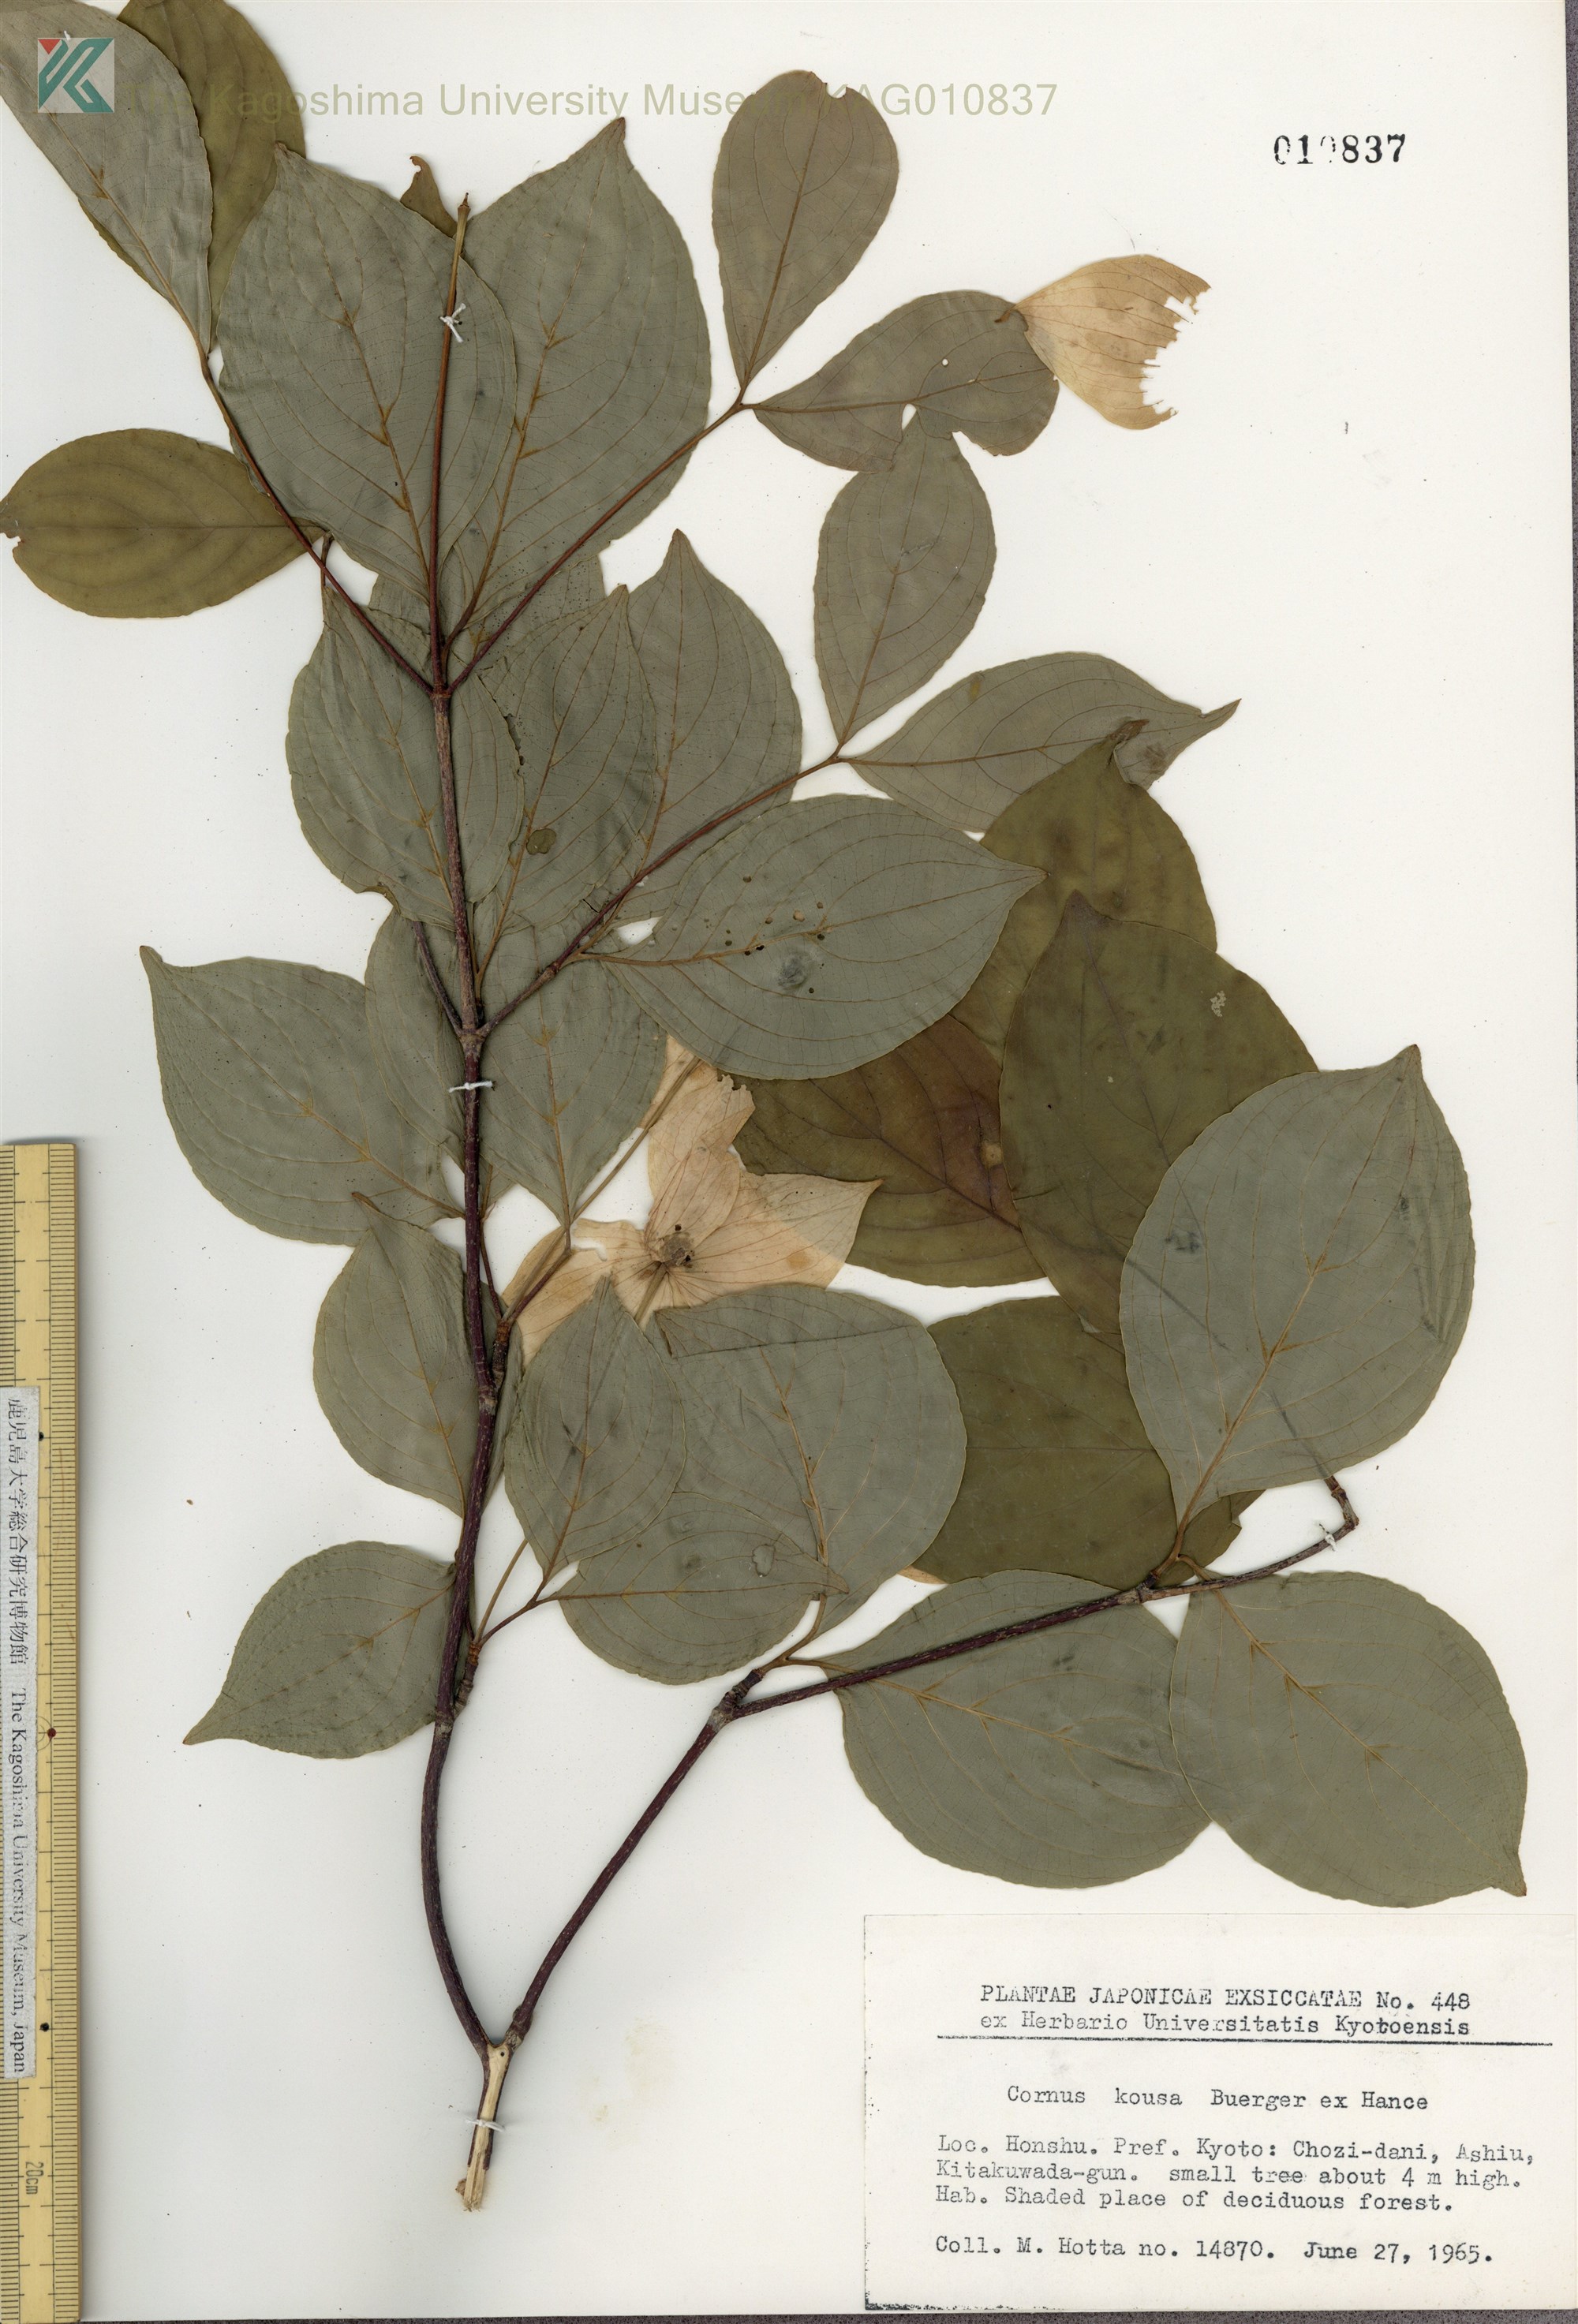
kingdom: Plantae
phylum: Tracheophyta
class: Magnoliopsida
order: Cornales
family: Cornaceae
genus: Cornus
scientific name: Cornus kousa
